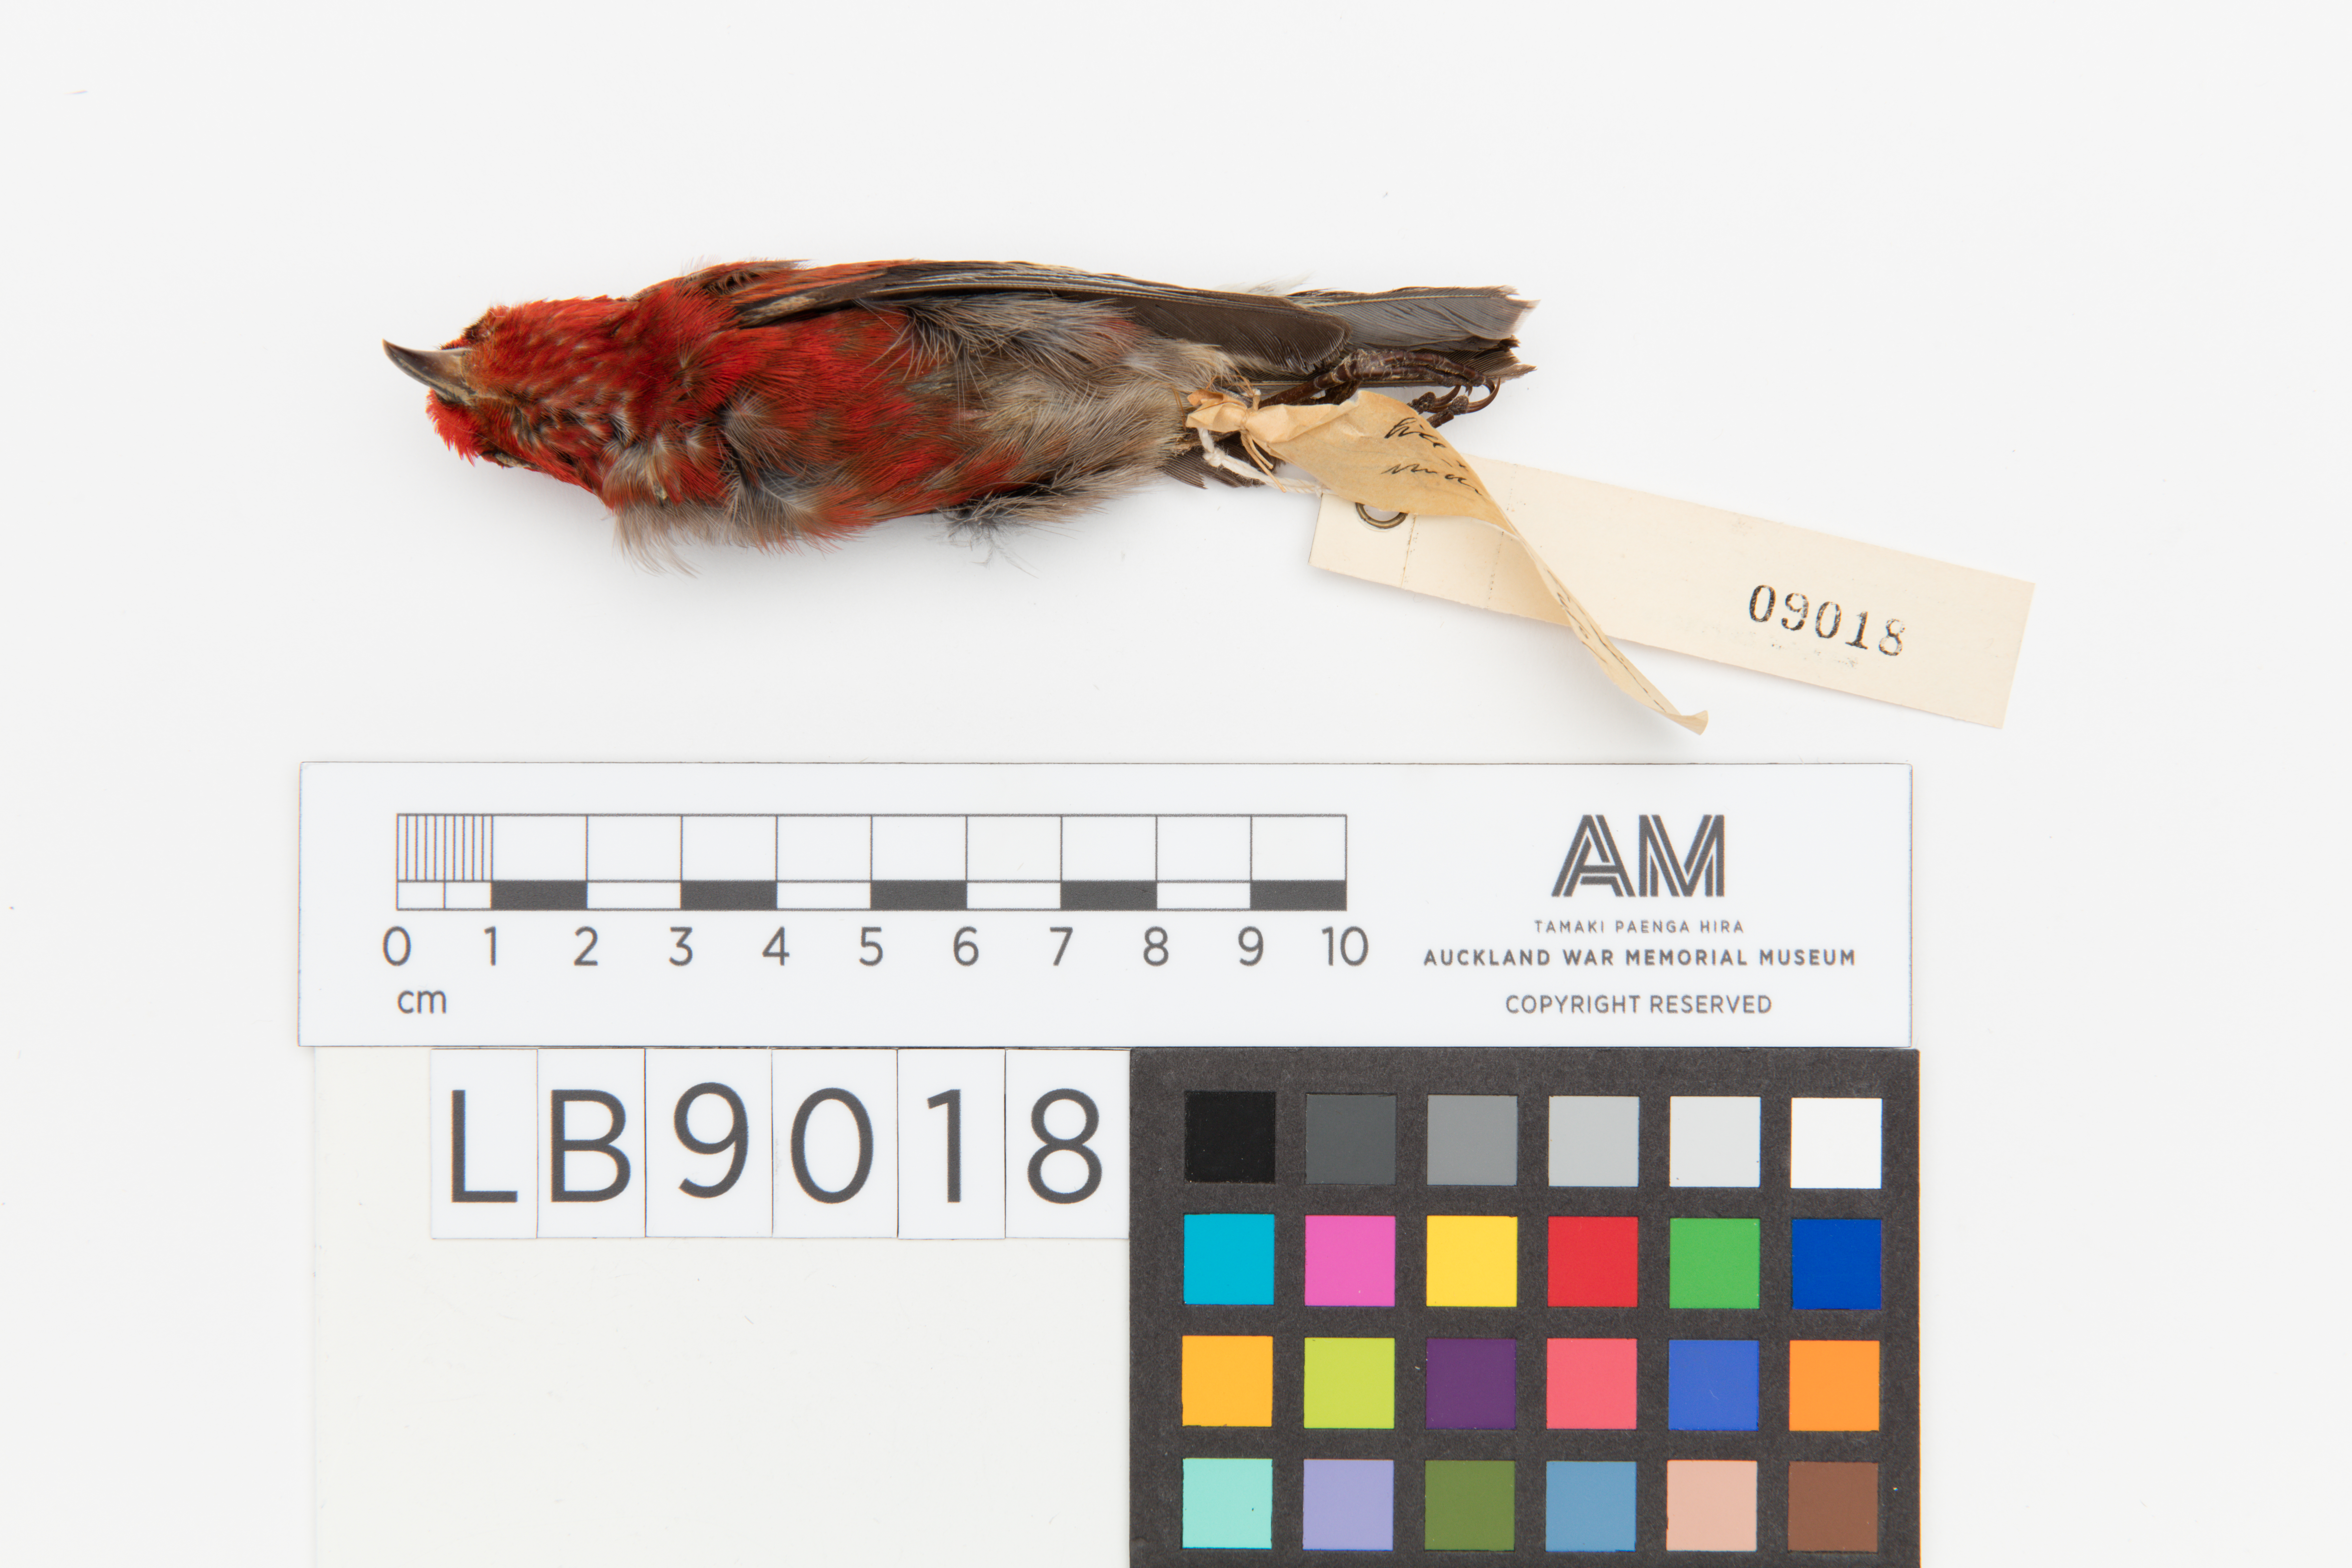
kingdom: Animalia
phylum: Chordata
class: Aves
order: Passeriformes
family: Fringillidae
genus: Himatione
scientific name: Himatione sanguinea
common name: Apapane
